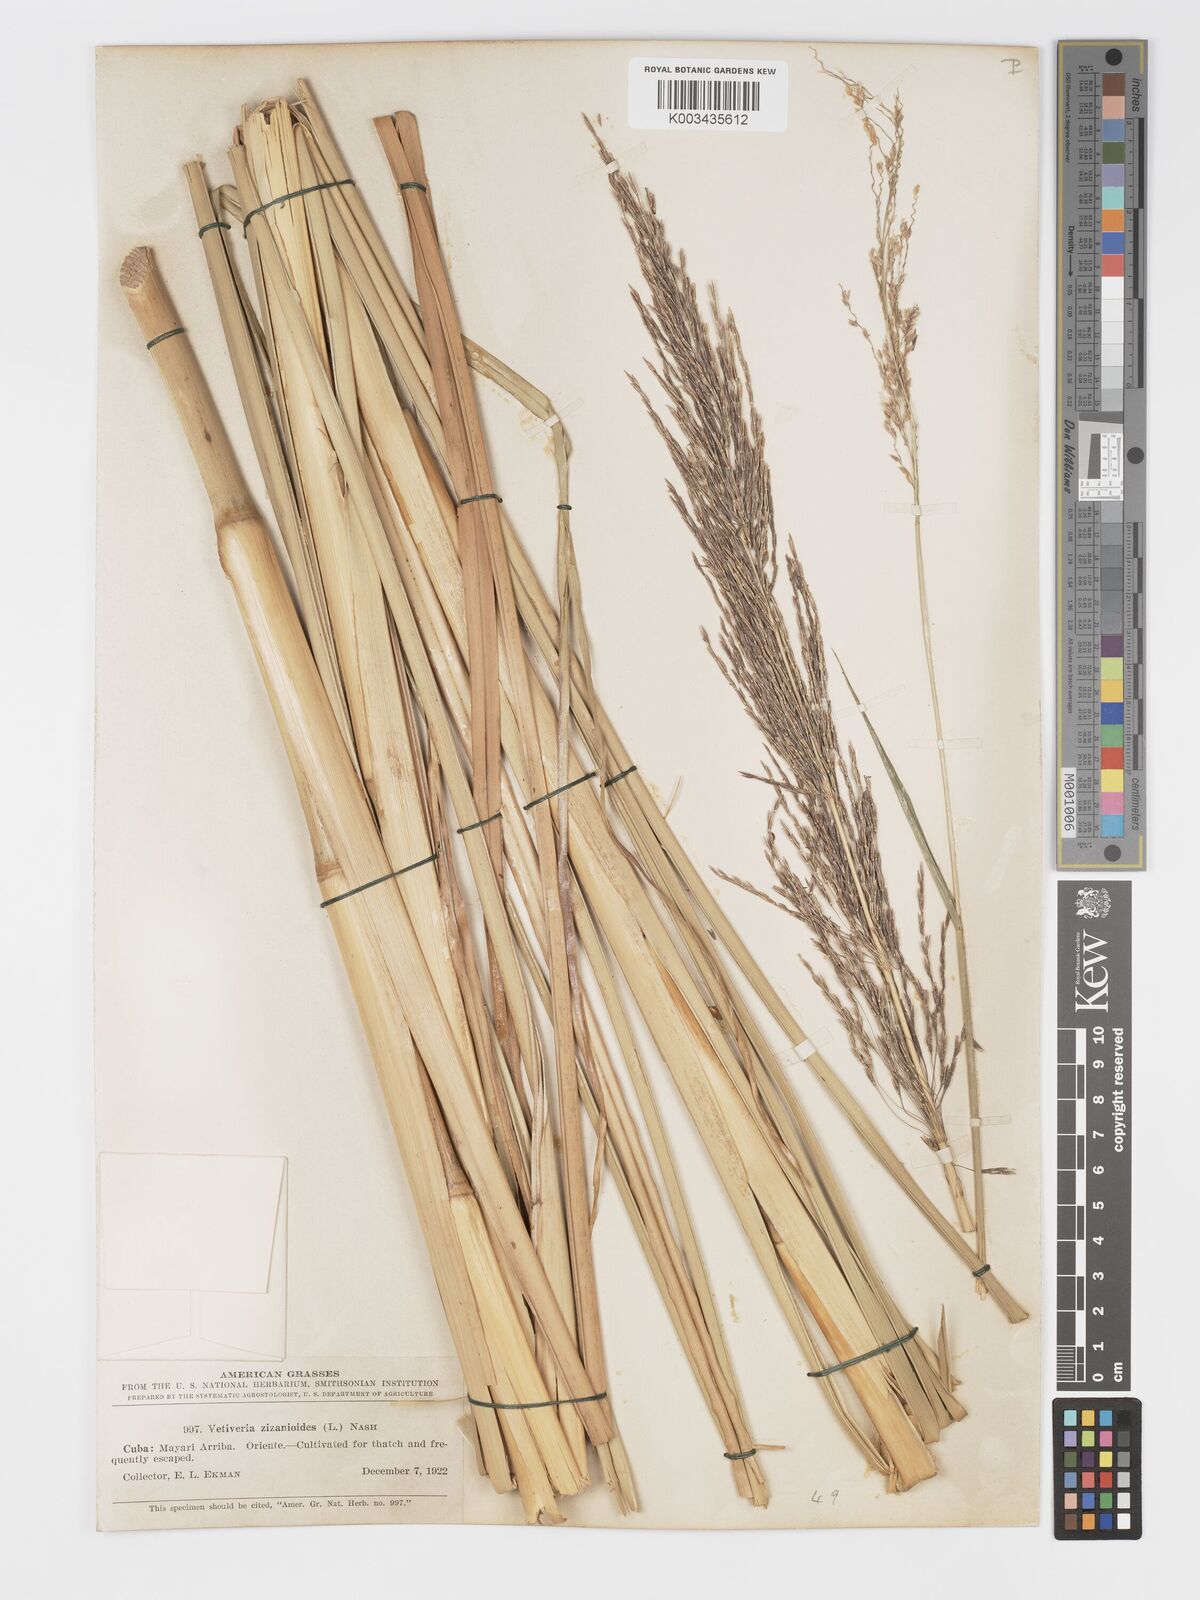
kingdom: Plantae
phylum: Tracheophyta
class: Liliopsida
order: Poales
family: Poaceae
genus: Chrysopogon
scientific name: Chrysopogon zizanioides
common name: False beardgrass
